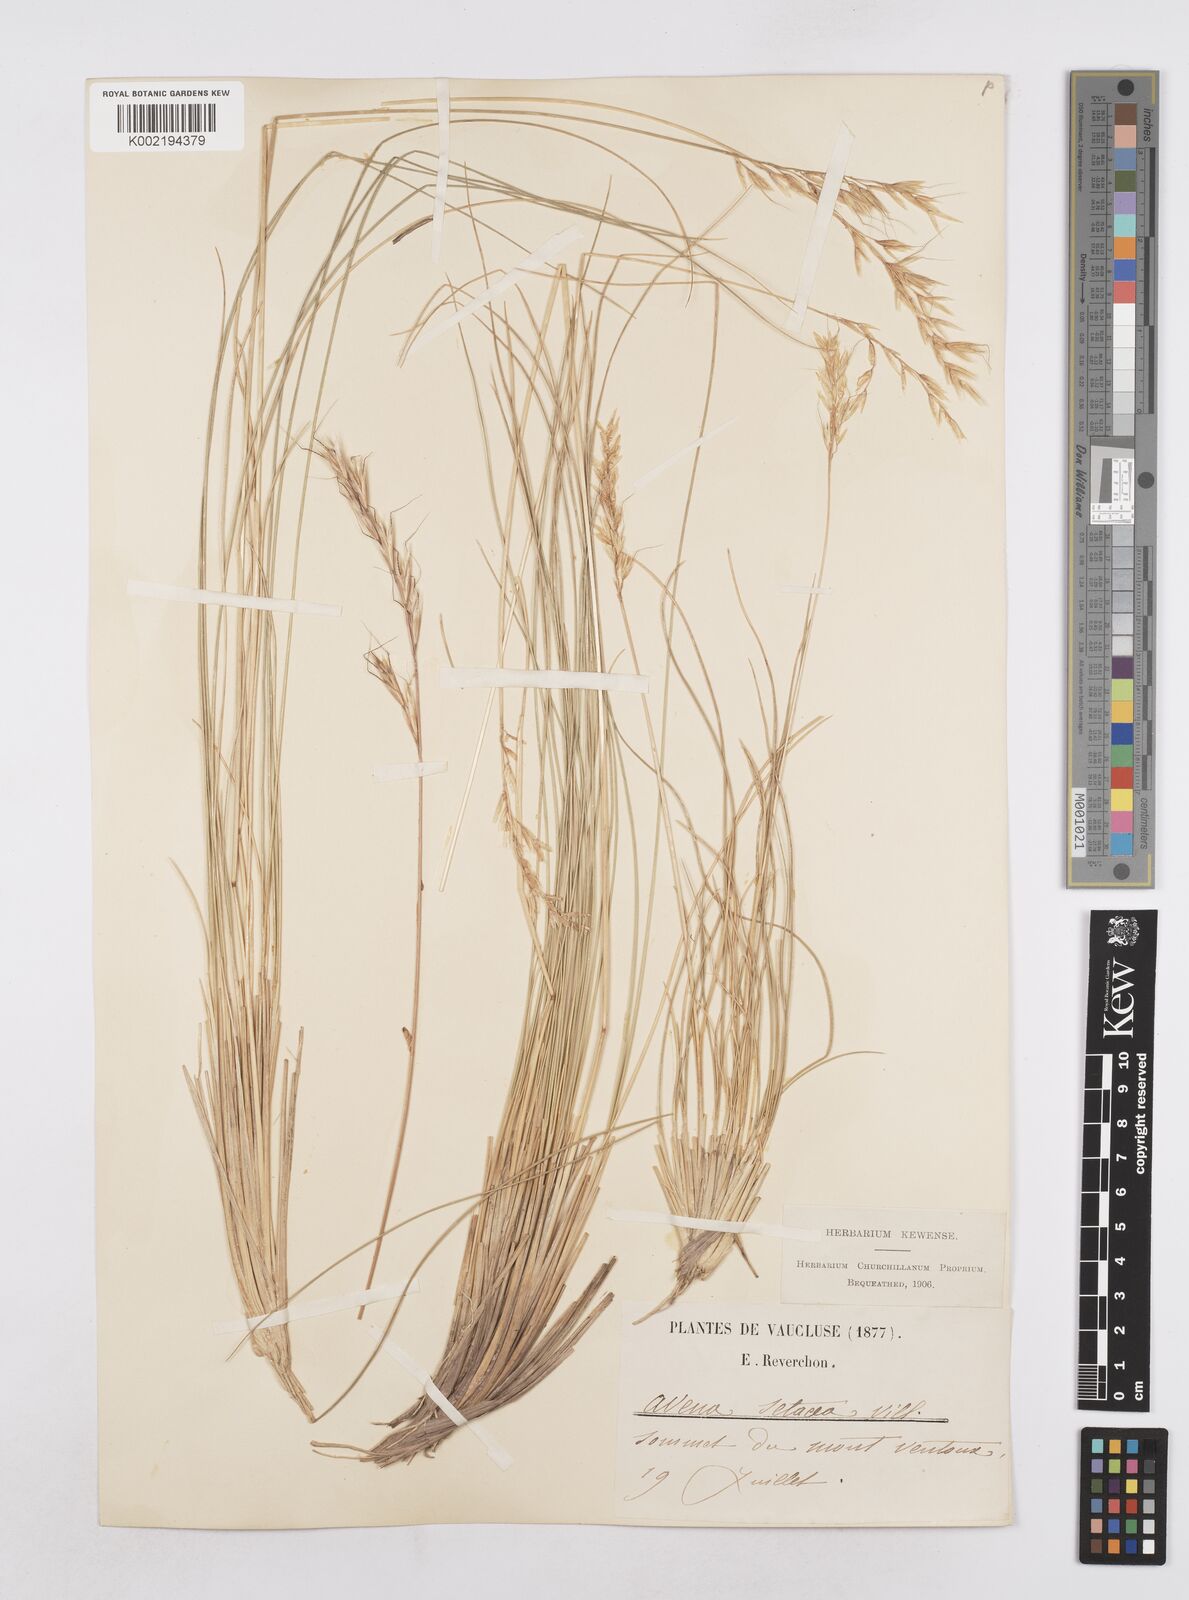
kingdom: Plantae
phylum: Tracheophyta
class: Liliopsida
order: Poales
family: Poaceae
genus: Helictotrichon
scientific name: Helictotrichon setaceum
